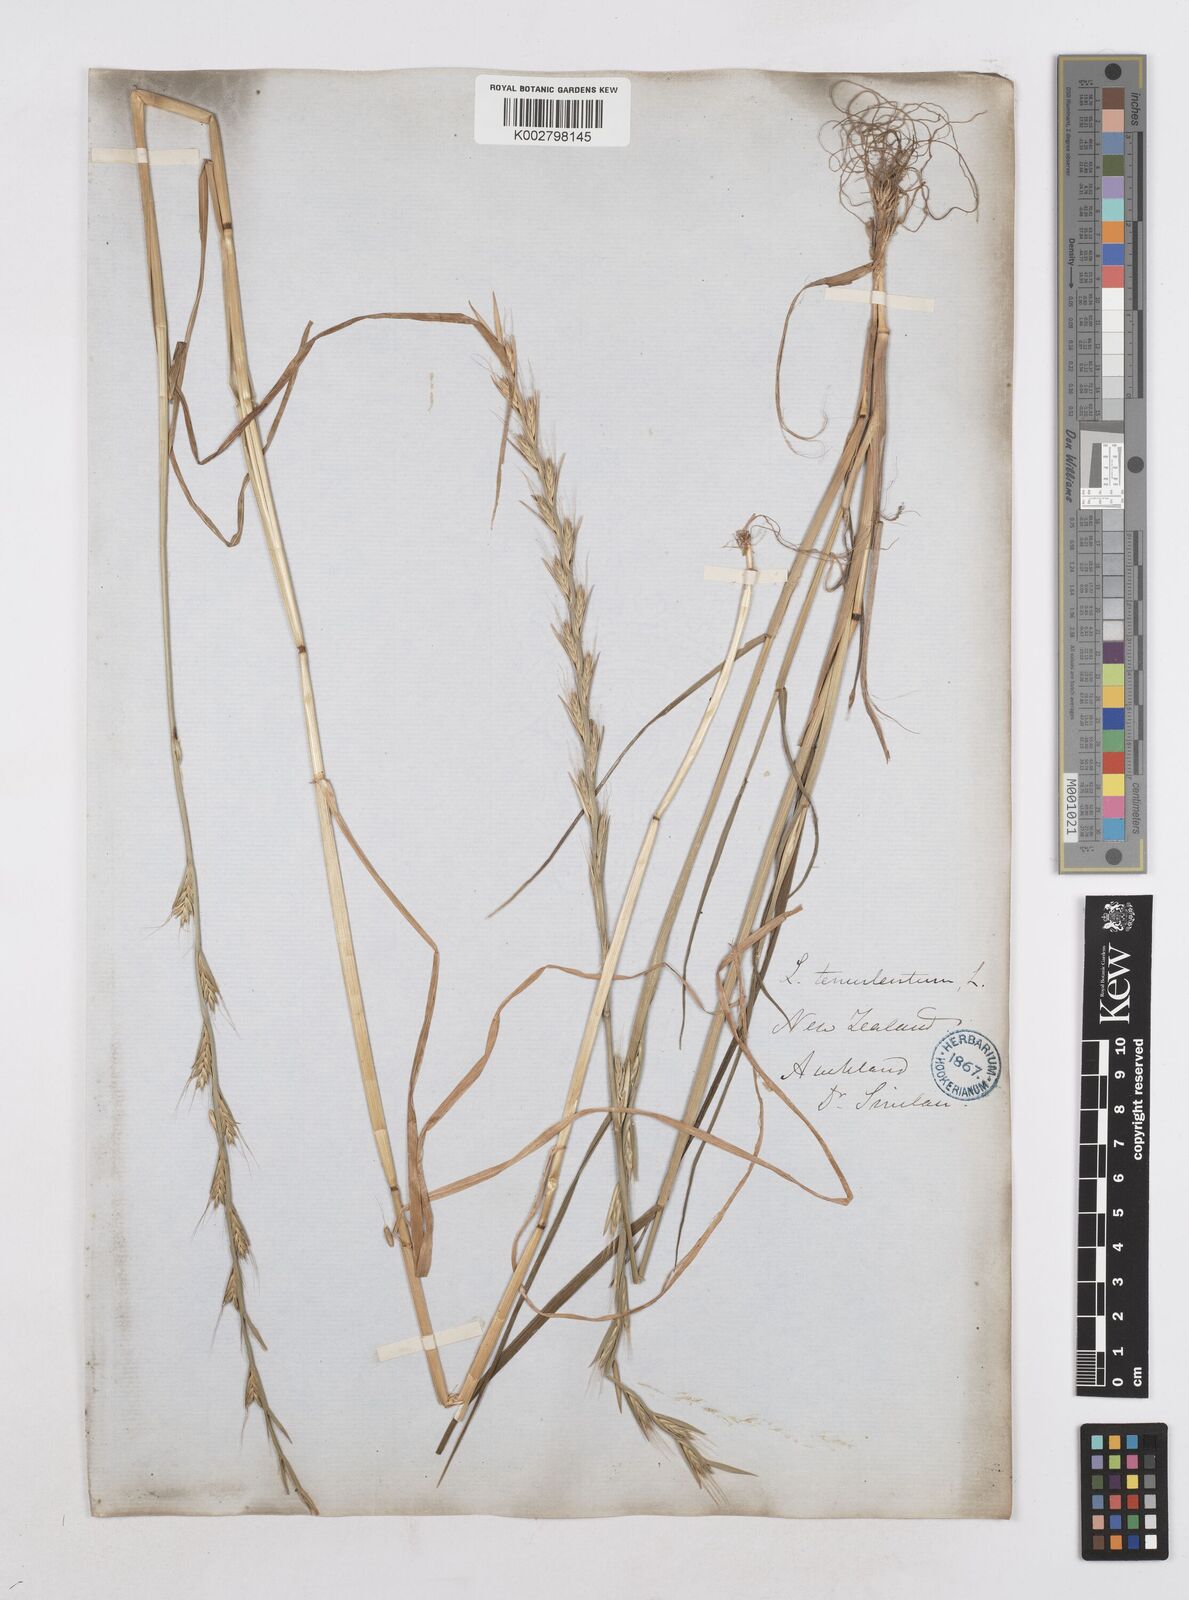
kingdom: Plantae
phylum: Tracheophyta
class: Liliopsida
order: Poales
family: Poaceae
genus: Lolium
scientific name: Lolium temulentum
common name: Darnel
